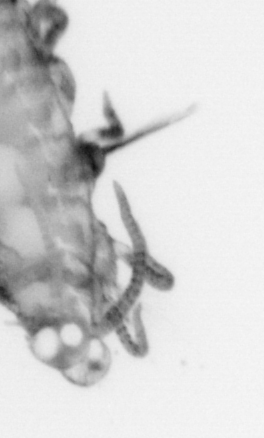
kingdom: Animalia
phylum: Annelida
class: Polychaeta
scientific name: Polychaeta
